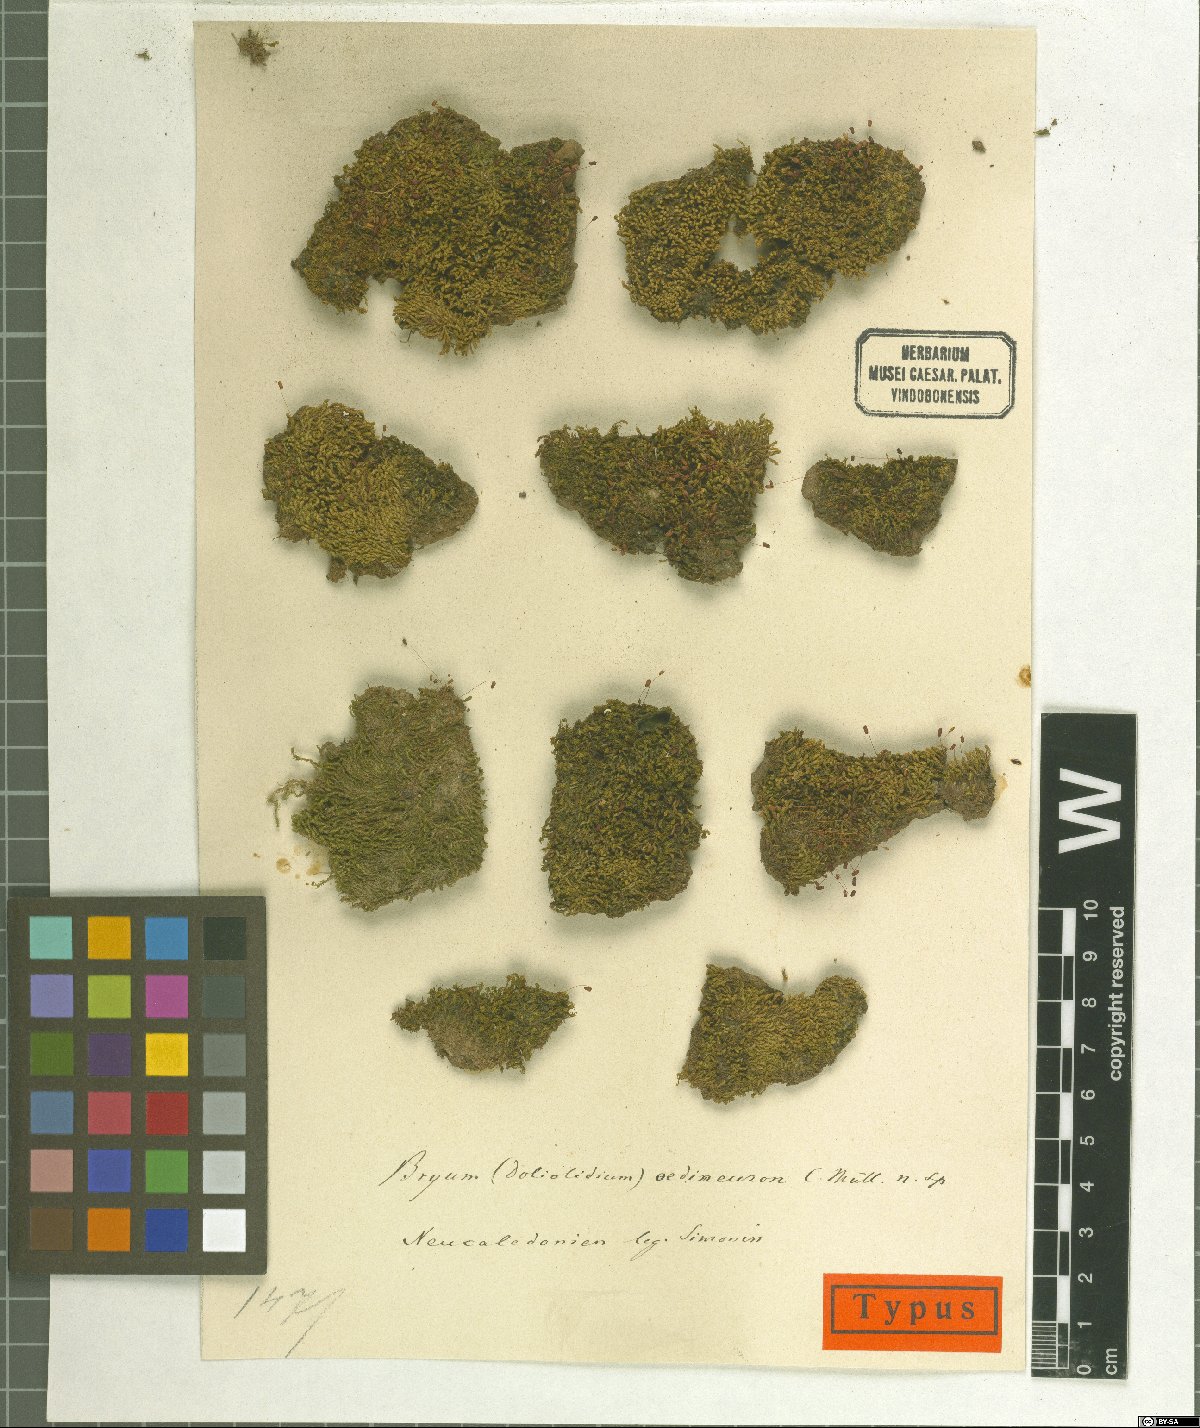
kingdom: Plantae
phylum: Bryophyta
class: Bryopsida
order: Bryales
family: Bryaceae
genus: Bryum
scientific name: Bryum oedeneuron
